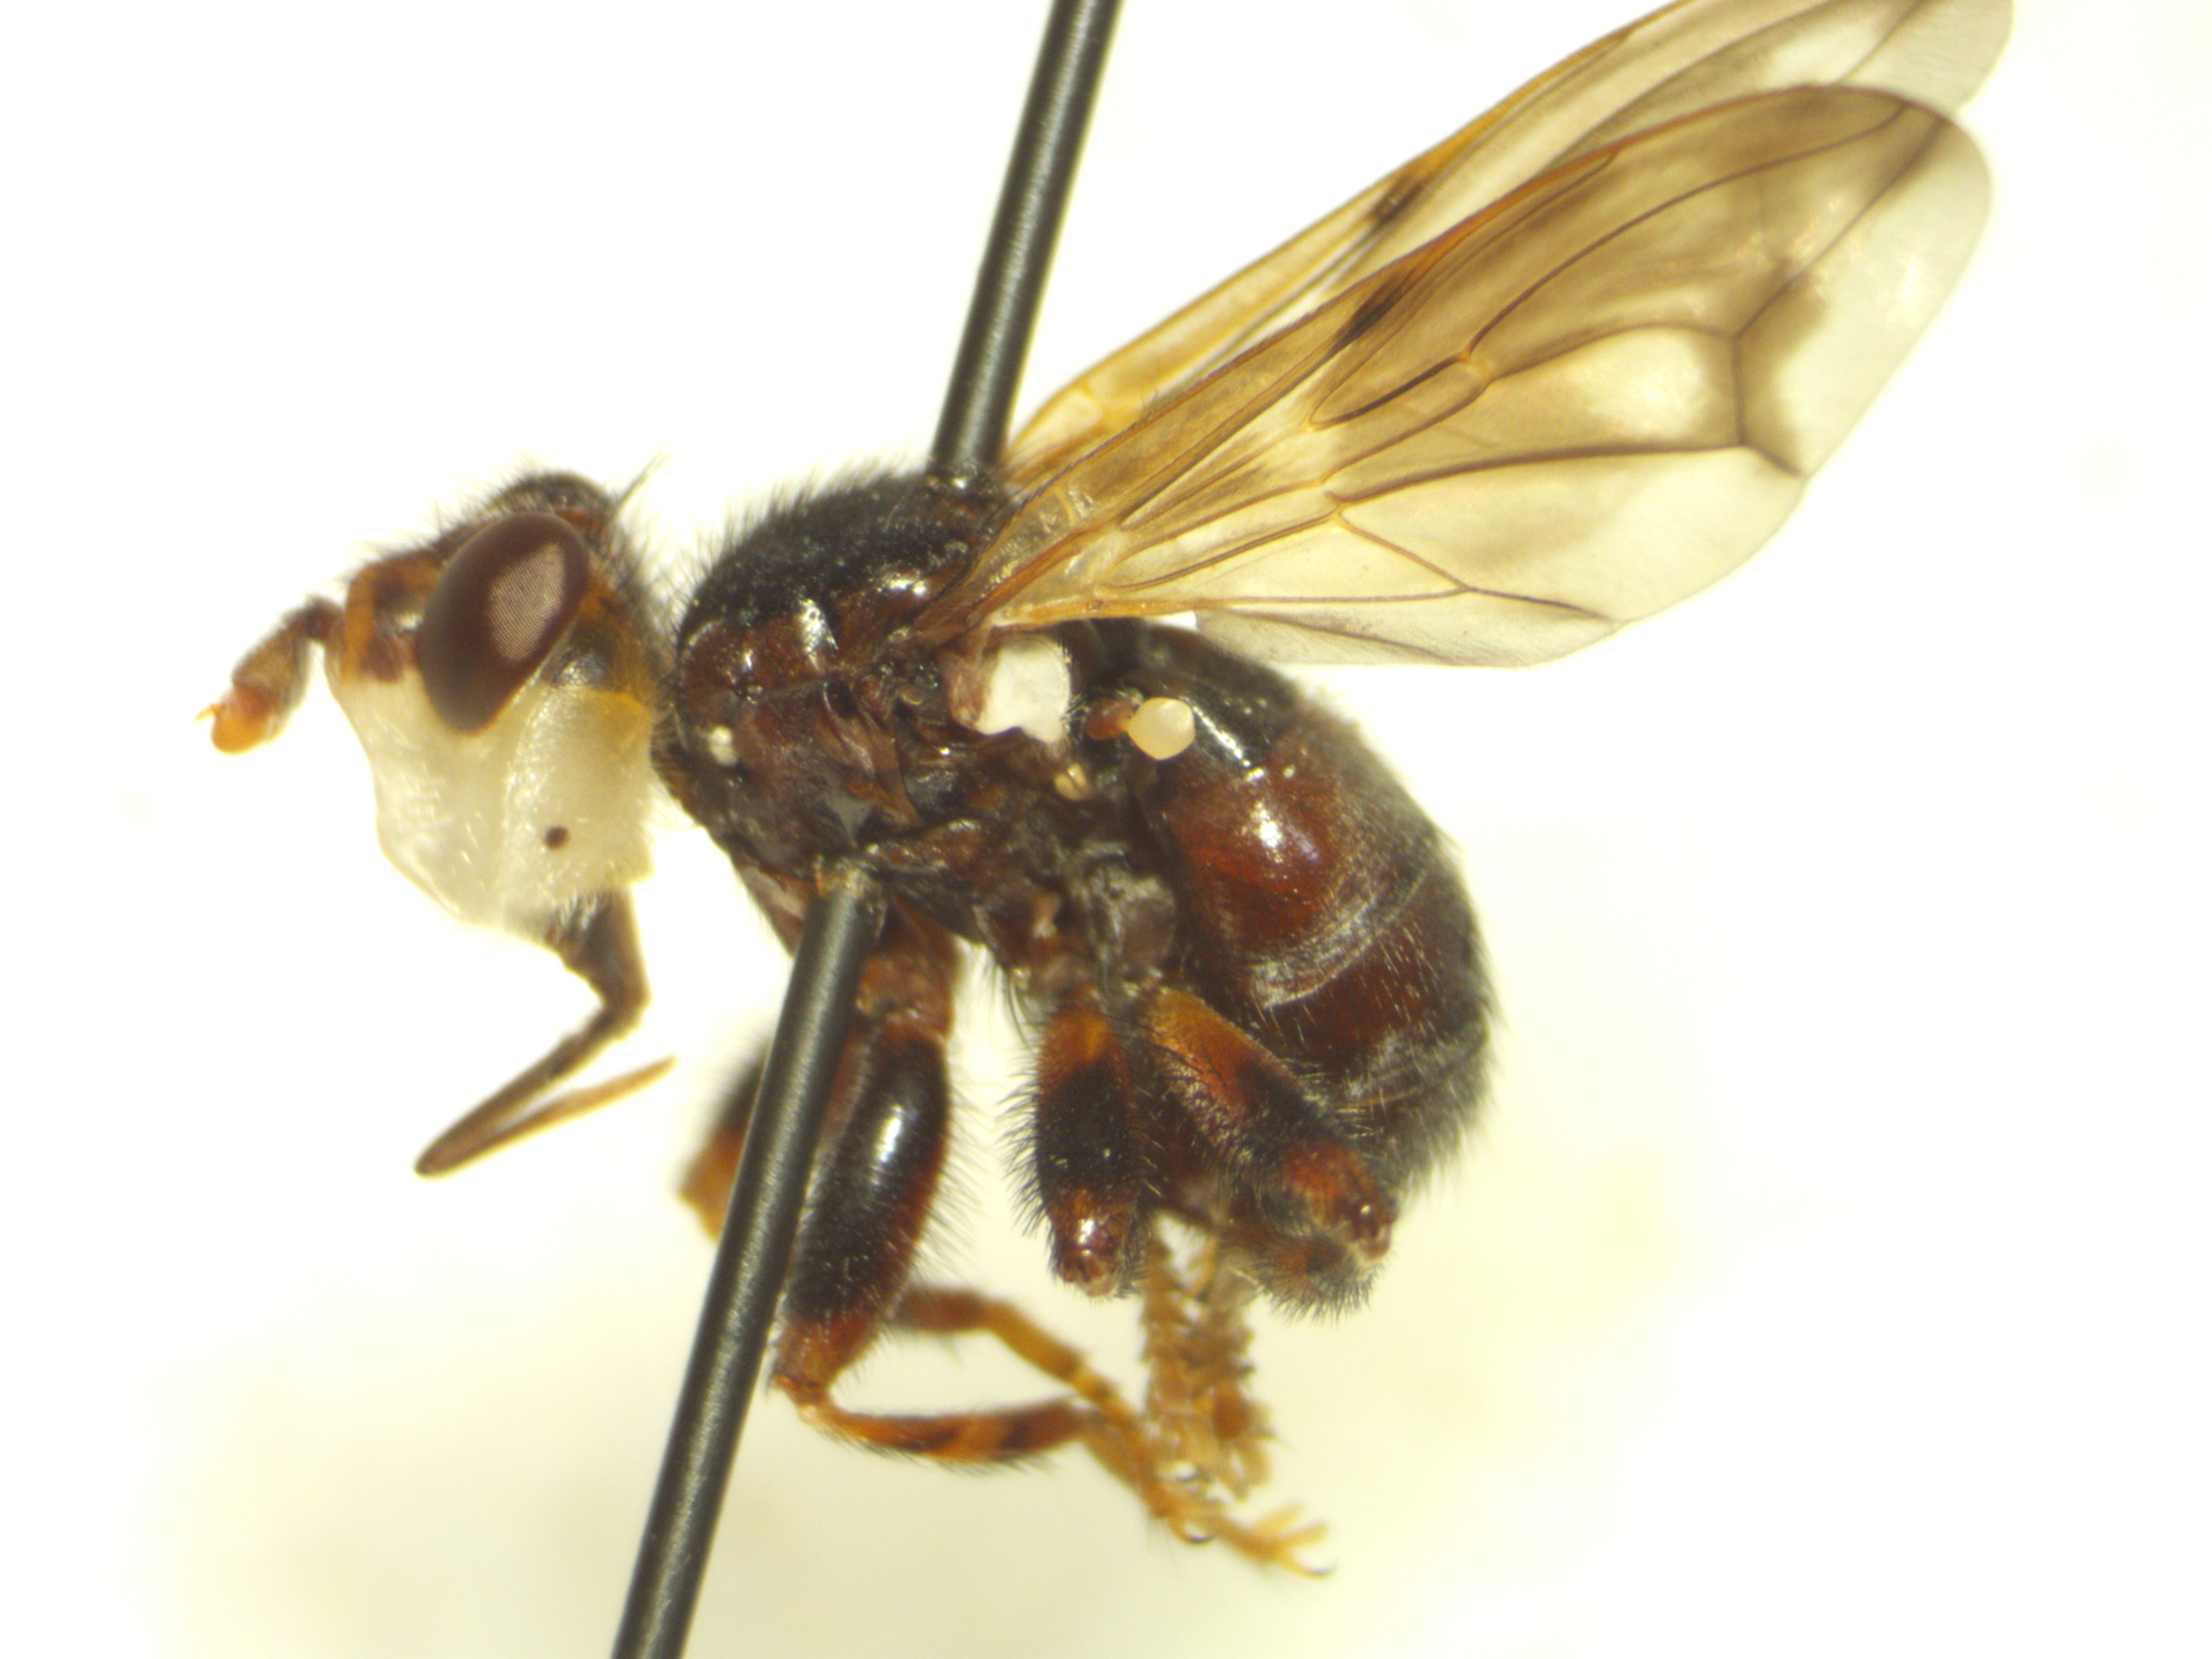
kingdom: Animalia
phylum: Arthropoda
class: Insecta
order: Diptera
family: Conopidae
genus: Myopa
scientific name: Myopa buccata
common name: Brun hvepseflue
